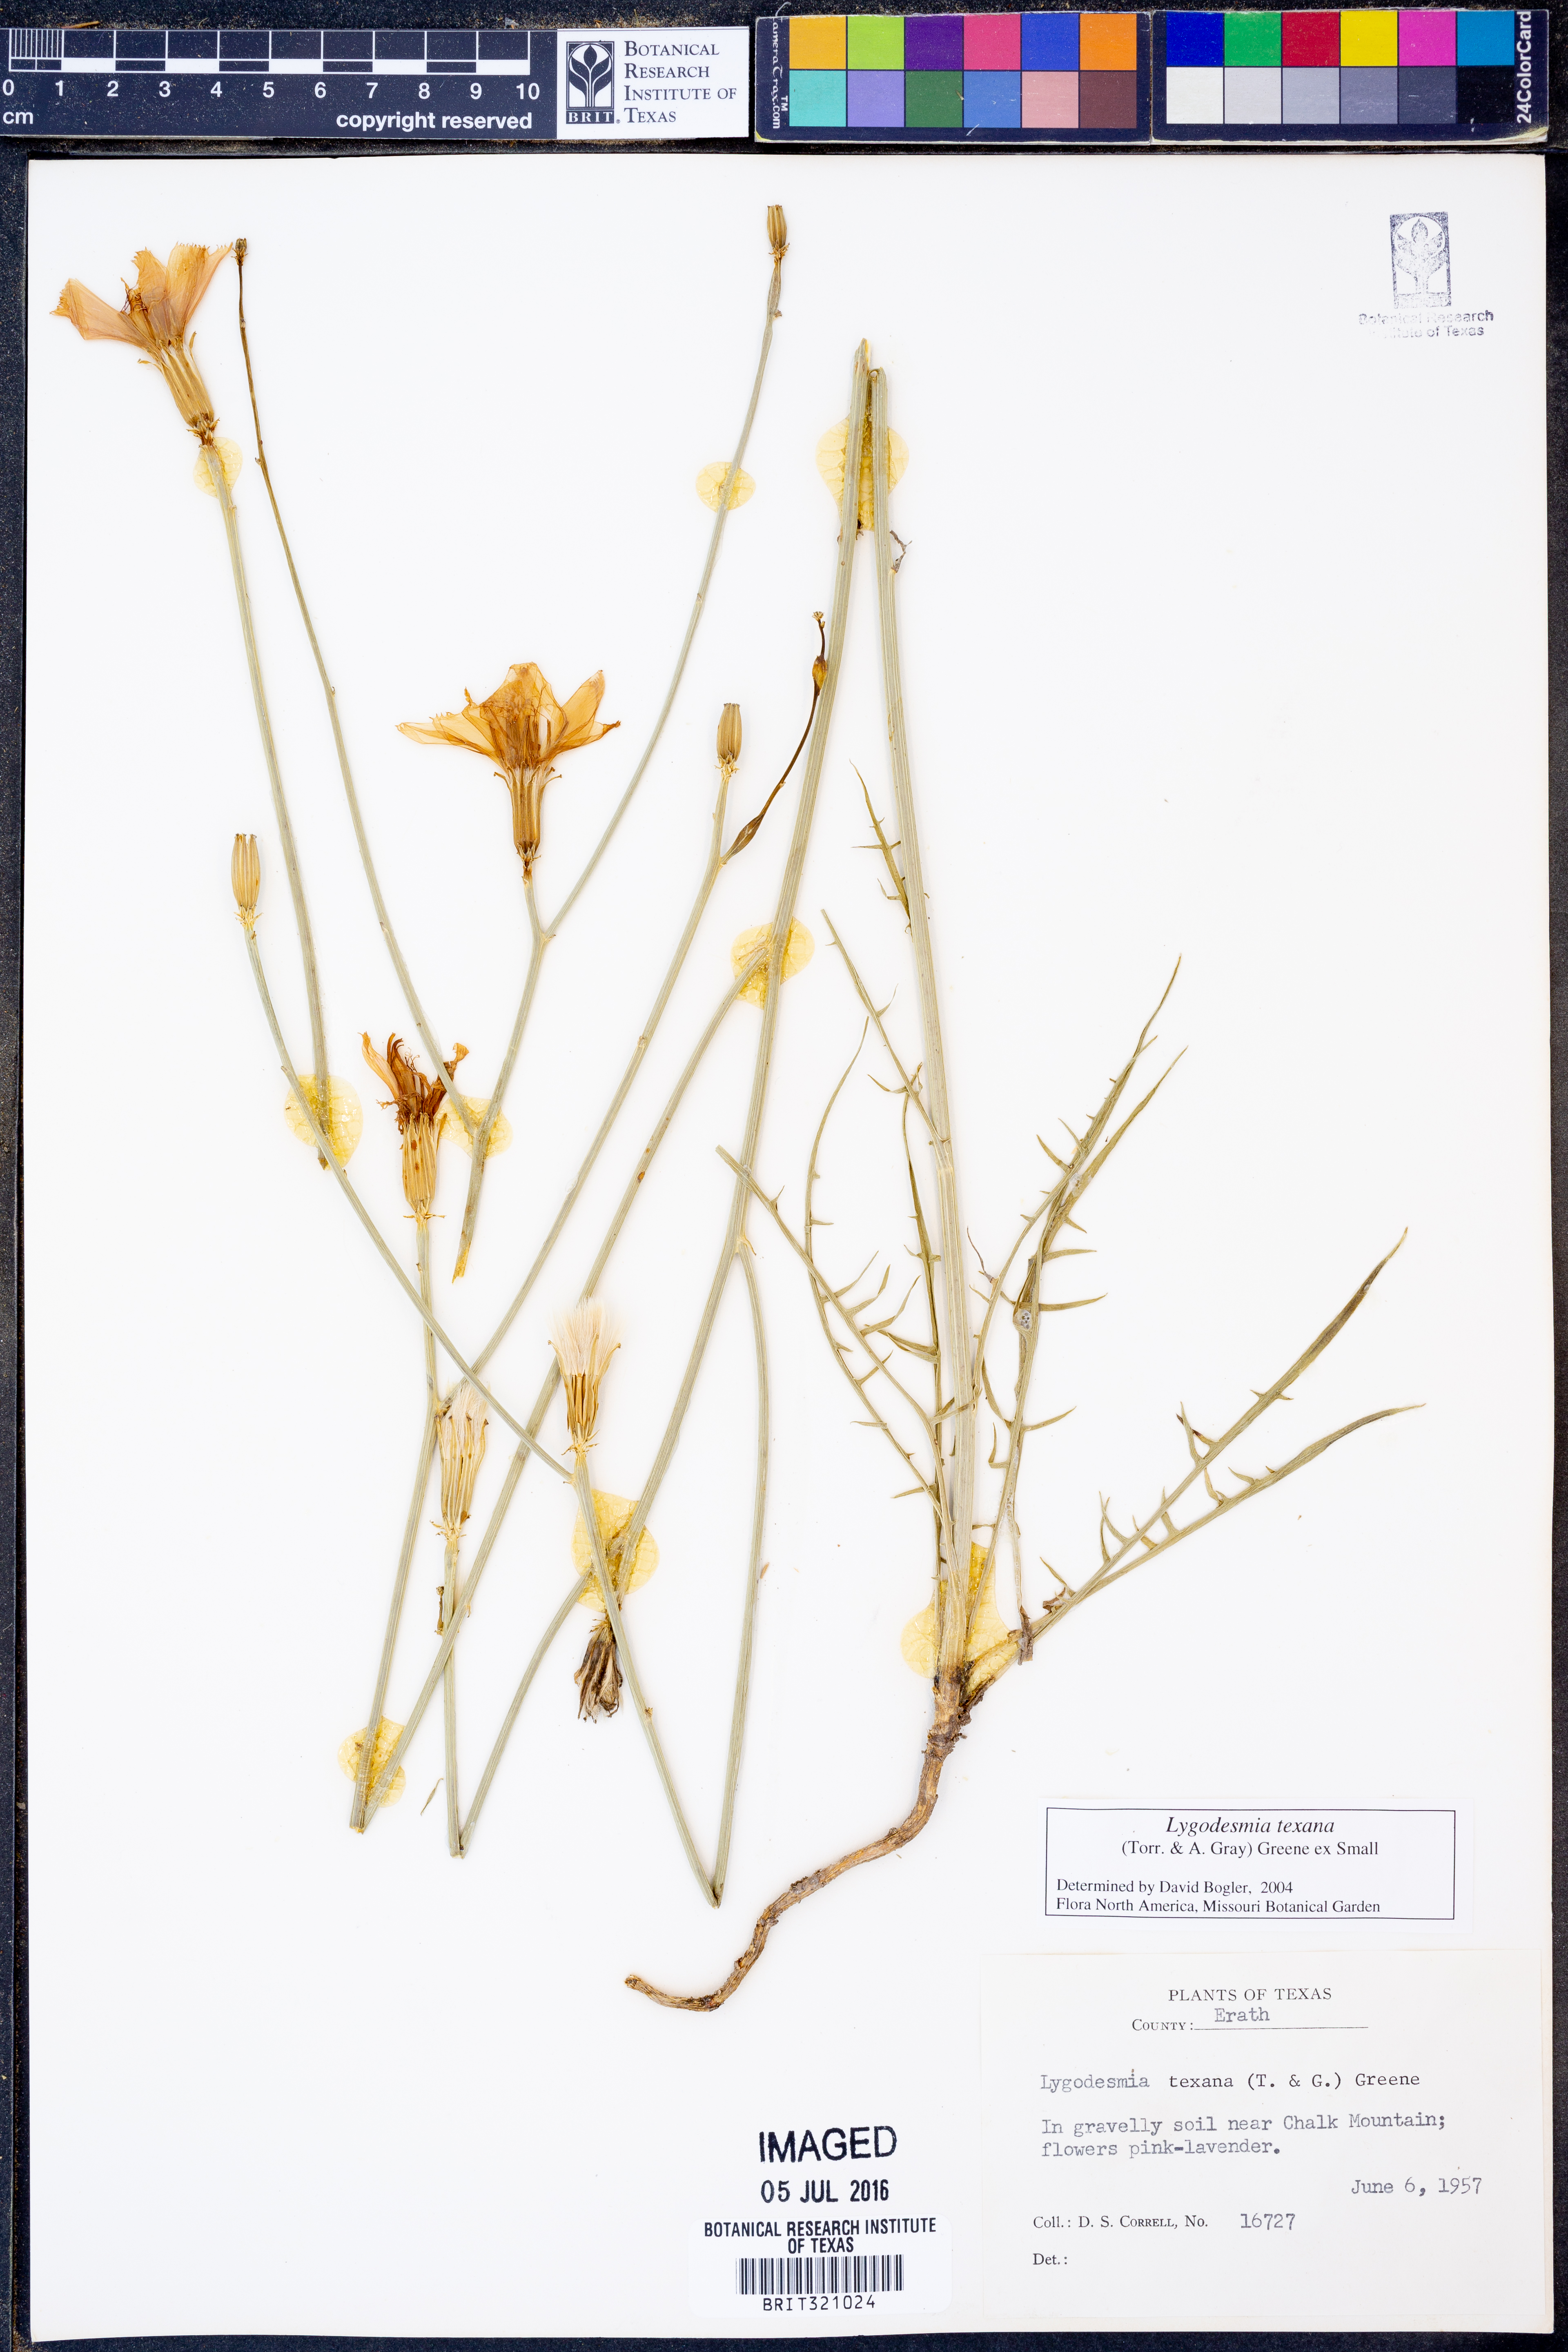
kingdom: Plantae
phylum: Tracheophyta
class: Magnoliopsida
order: Asterales
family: Asteraceae
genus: Lygodesmia
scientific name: Lygodesmia texana
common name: Texas skeleton-plant
